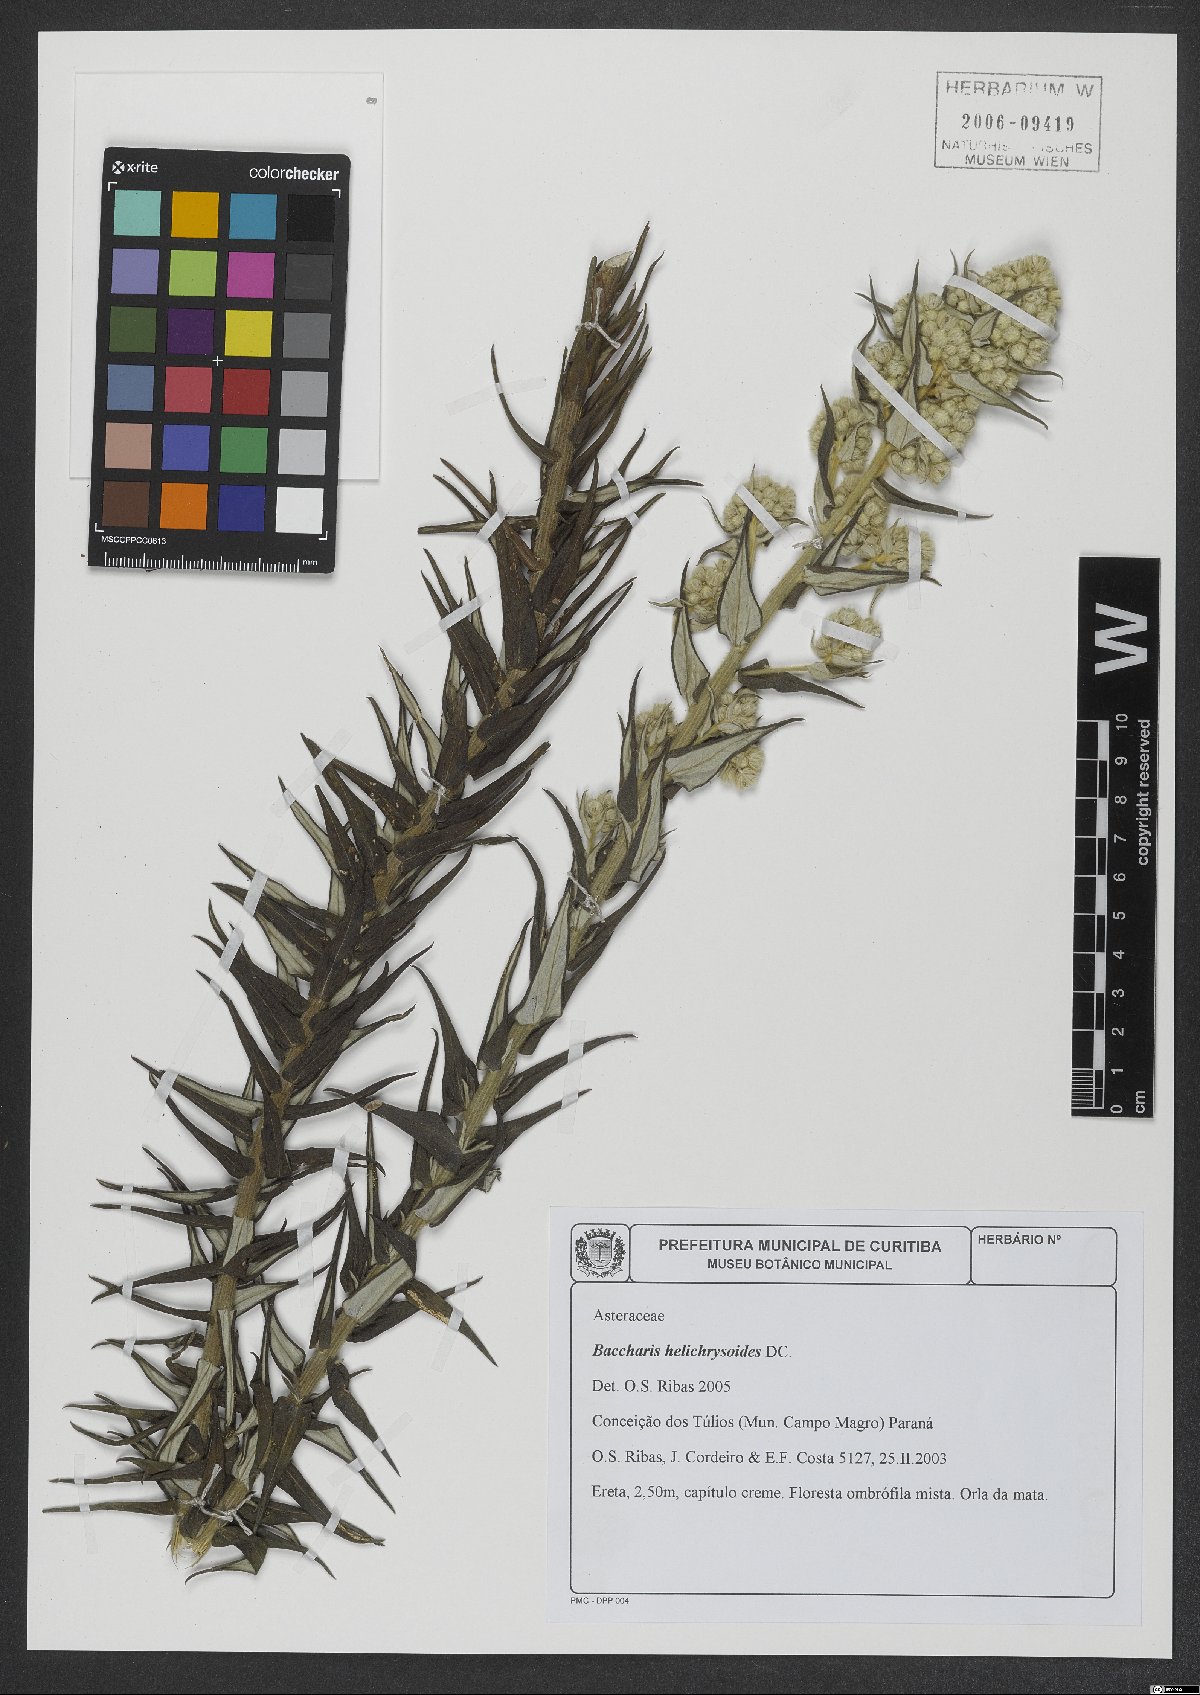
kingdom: Plantae
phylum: Tracheophyta
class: Magnoliopsida
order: Asterales
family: Asteraceae
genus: Baccharis
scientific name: Baccharis helichrysoides
